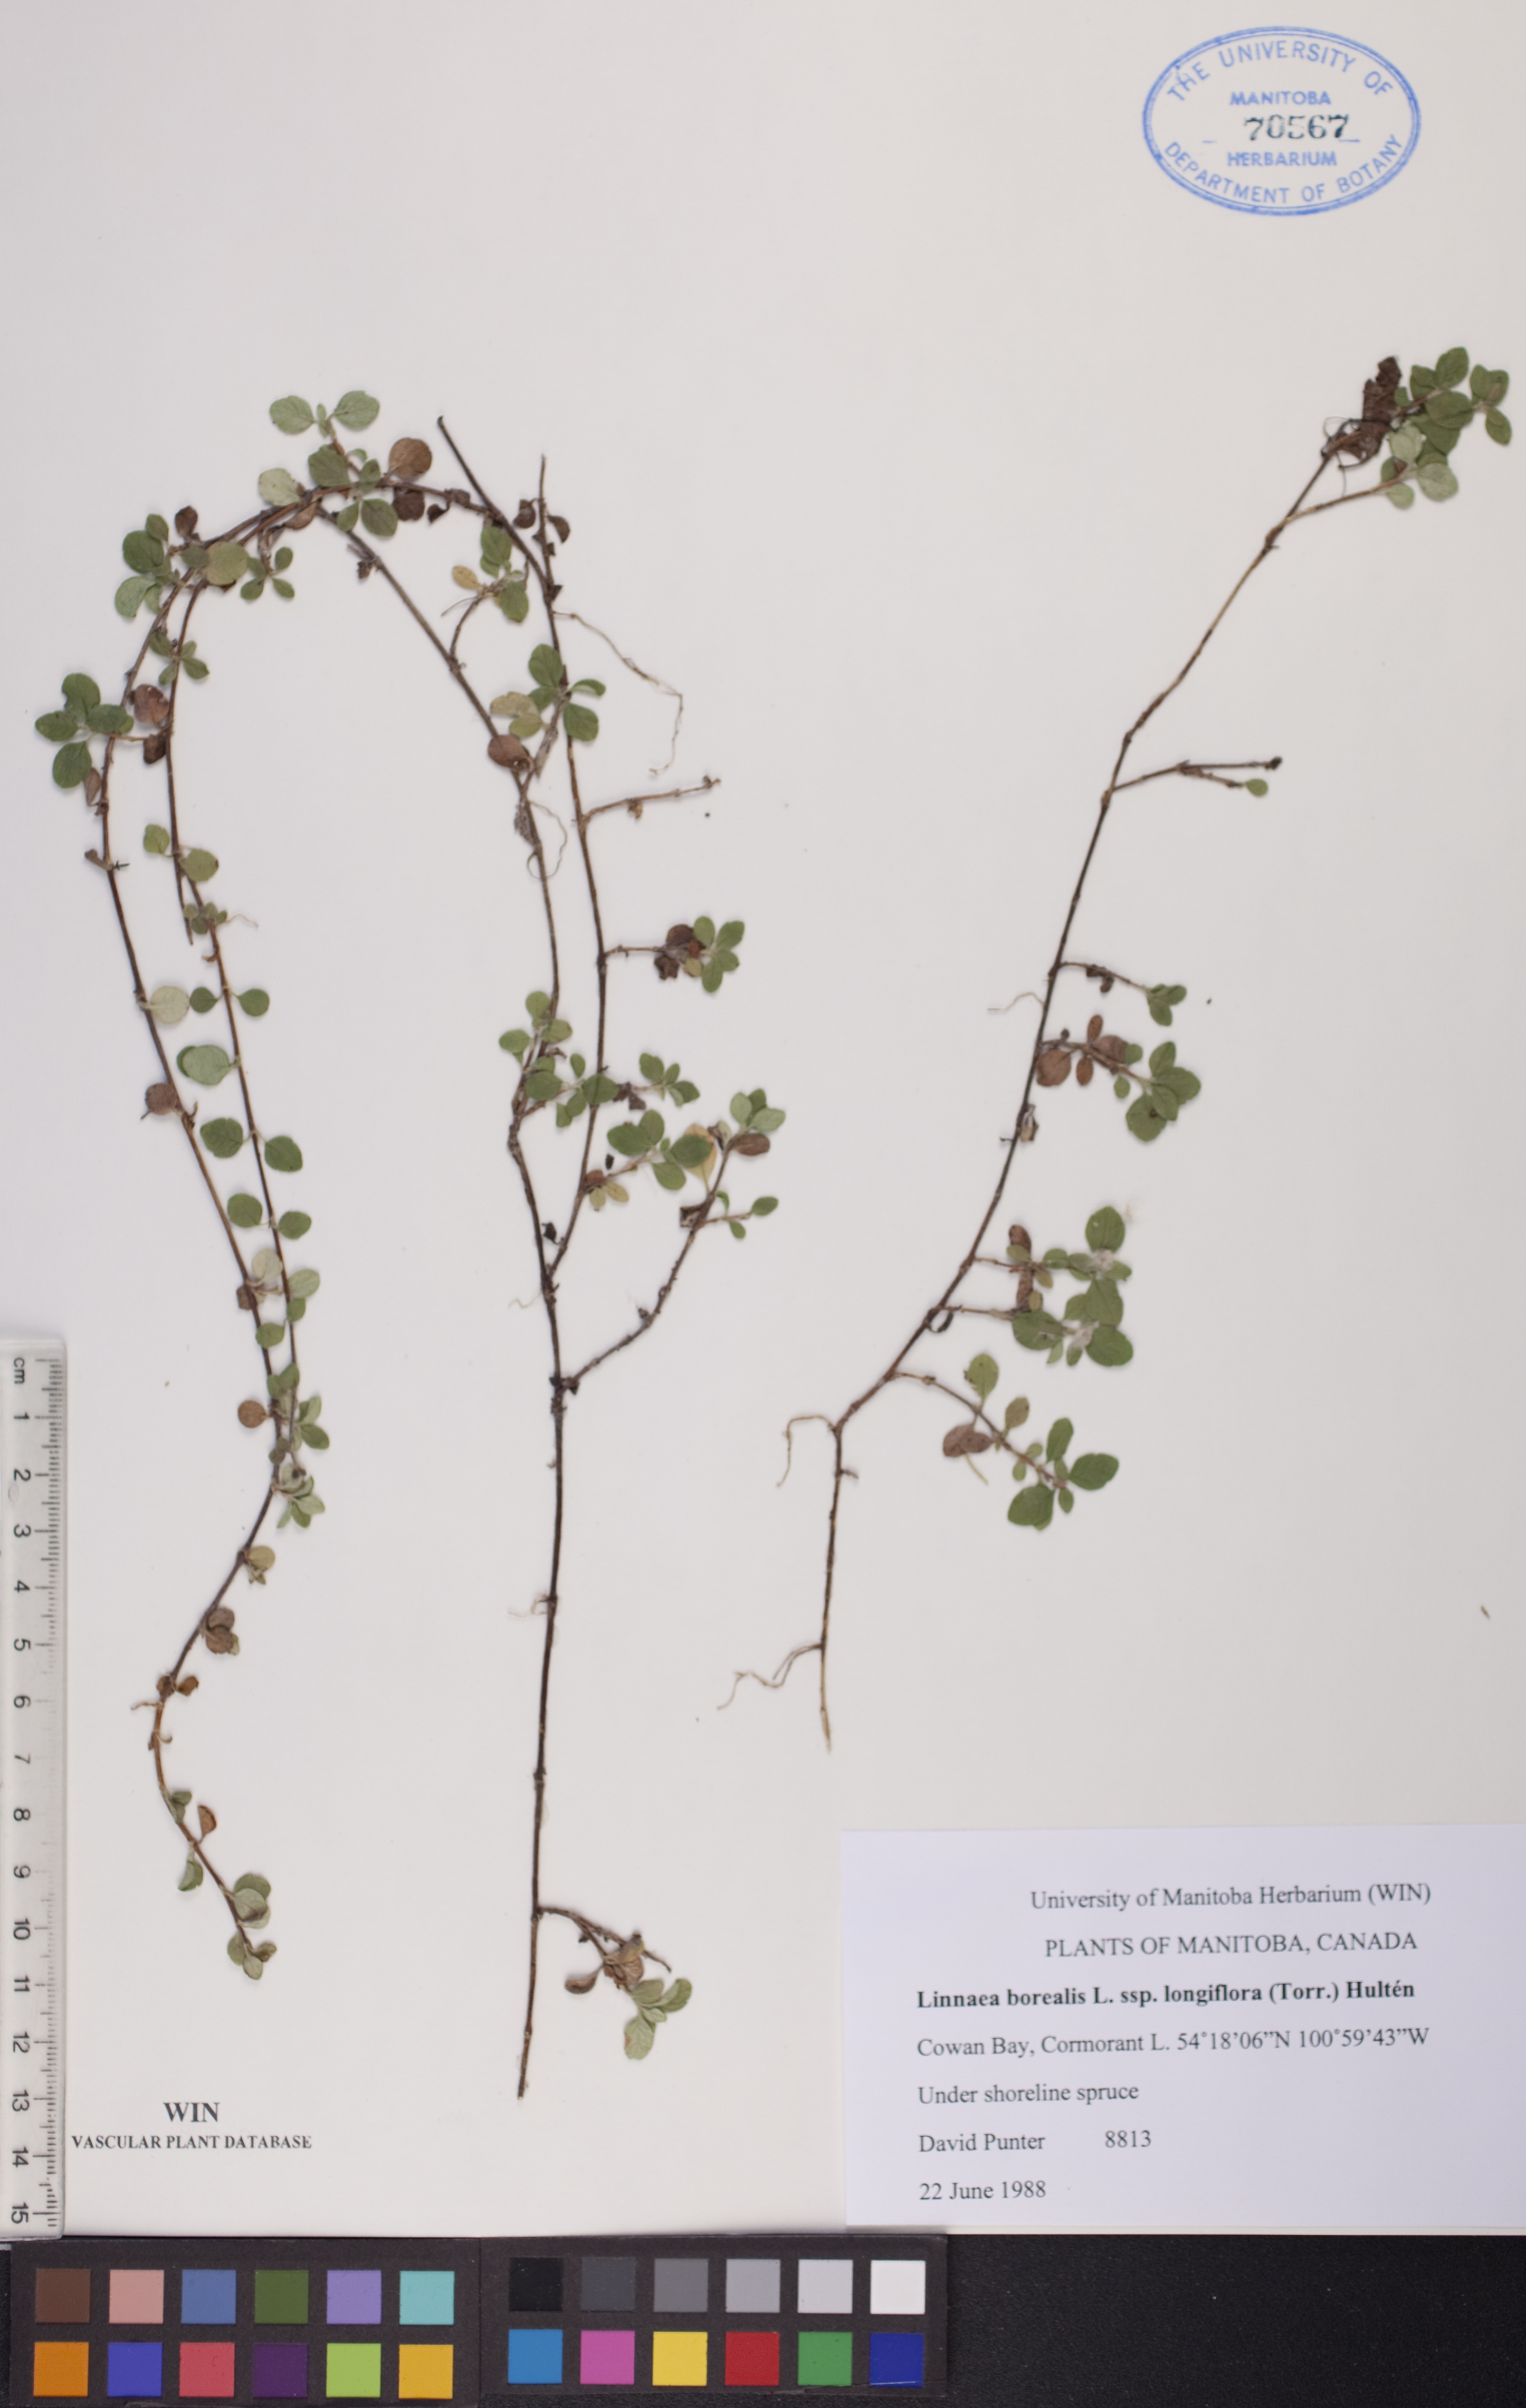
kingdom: Plantae
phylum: Tracheophyta
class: Magnoliopsida
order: Dipsacales
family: Caprifoliaceae
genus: Linnaea
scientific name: Linnaea borealis
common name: Twinflower
